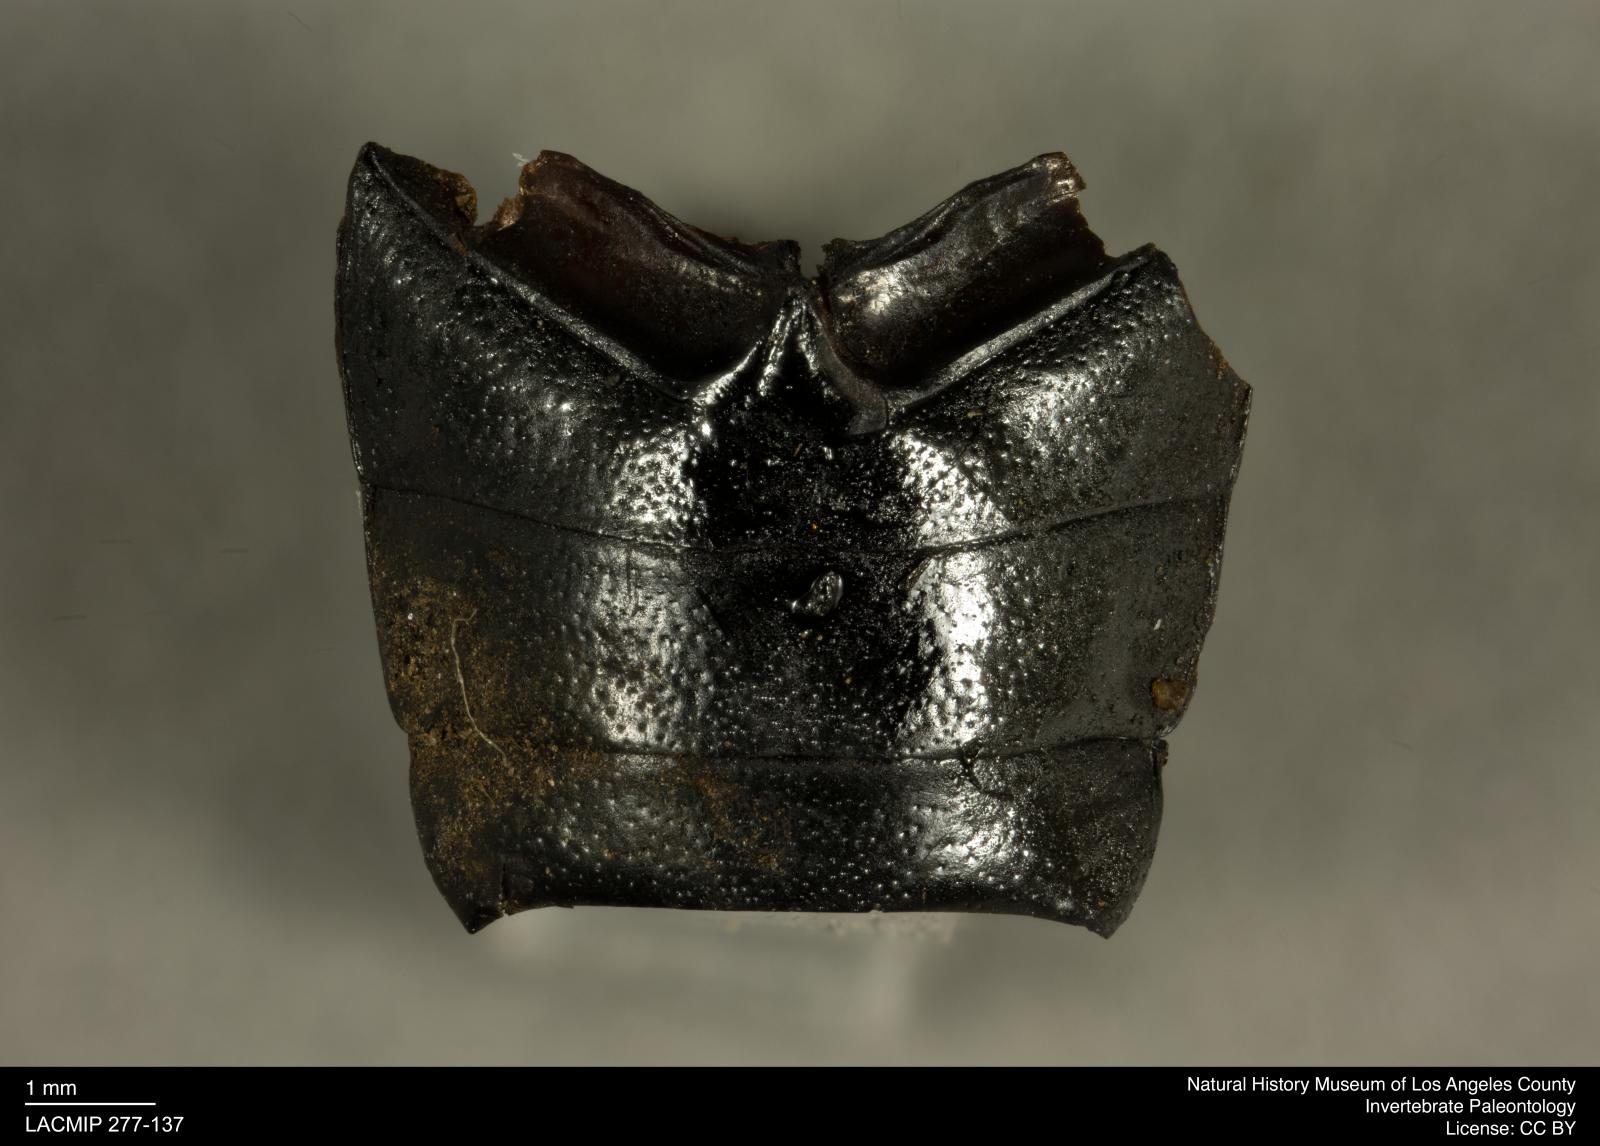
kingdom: Animalia
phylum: Arthropoda
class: Insecta
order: Coleoptera
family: Tenebrionidae
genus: Coniontis
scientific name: Coniontis abdominalis
